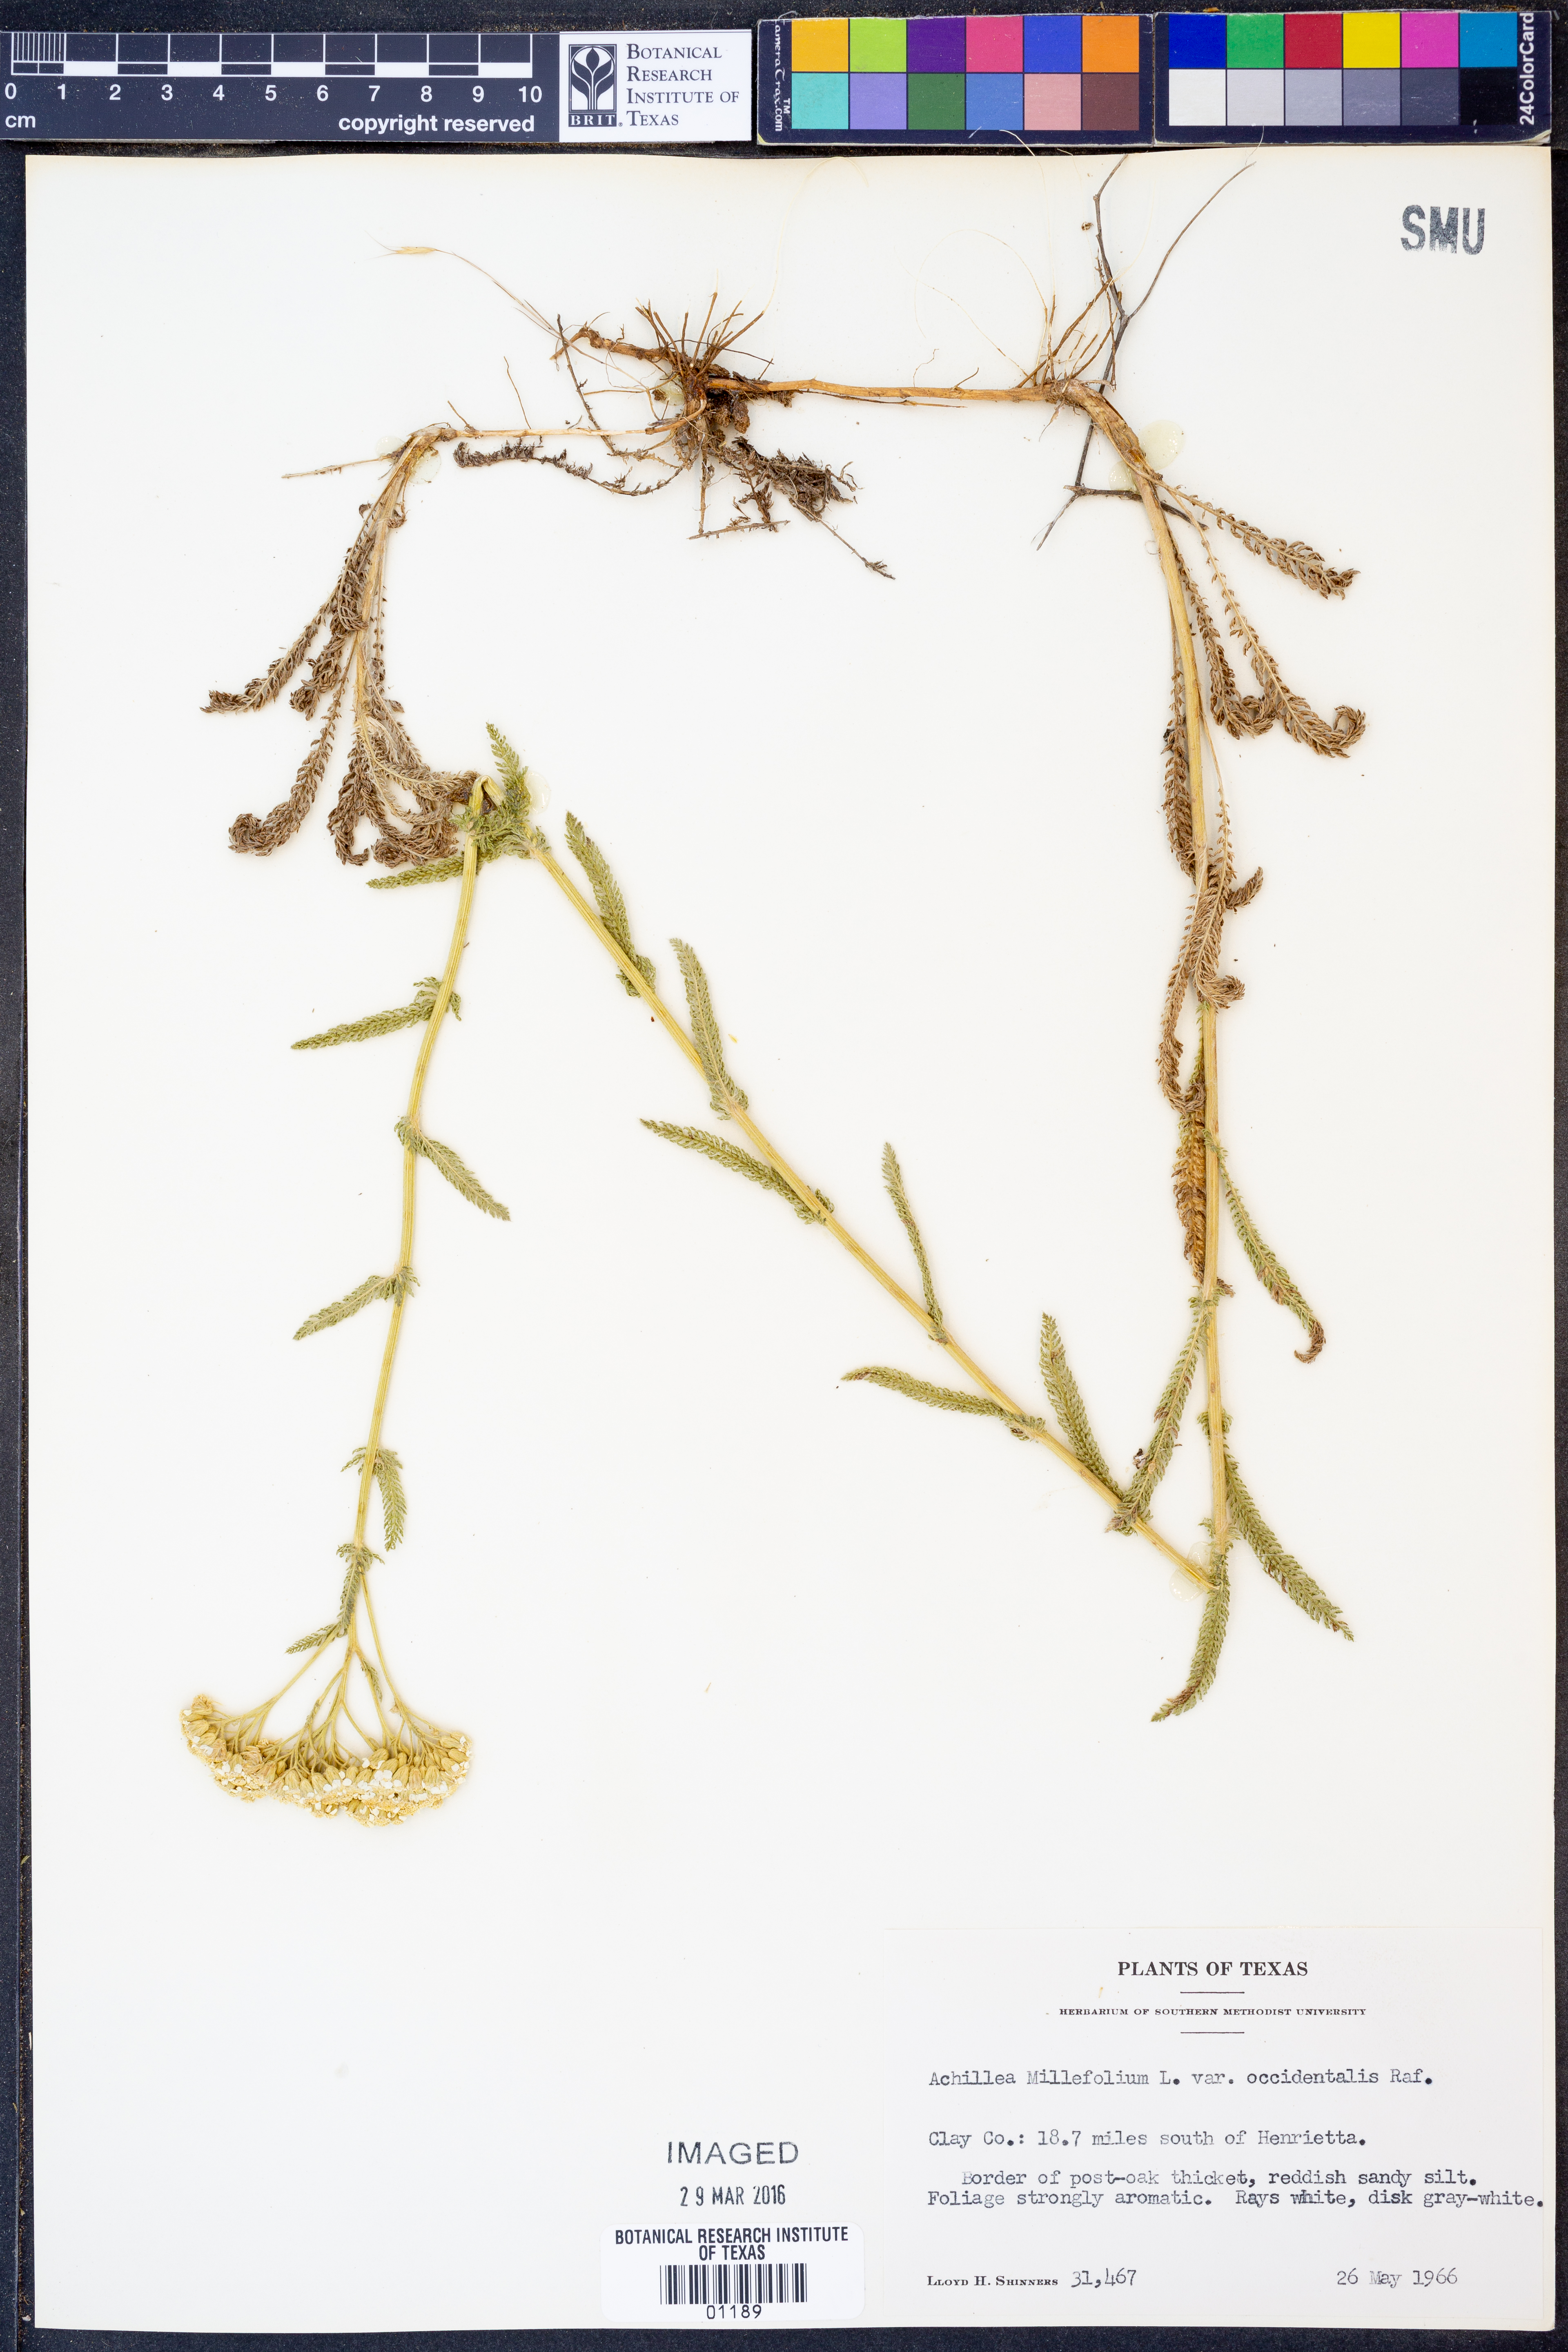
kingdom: Plantae
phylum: Tracheophyta
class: Magnoliopsida
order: Asterales
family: Asteraceae
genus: Achillea
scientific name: Achillea millefolium
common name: Yarrow
